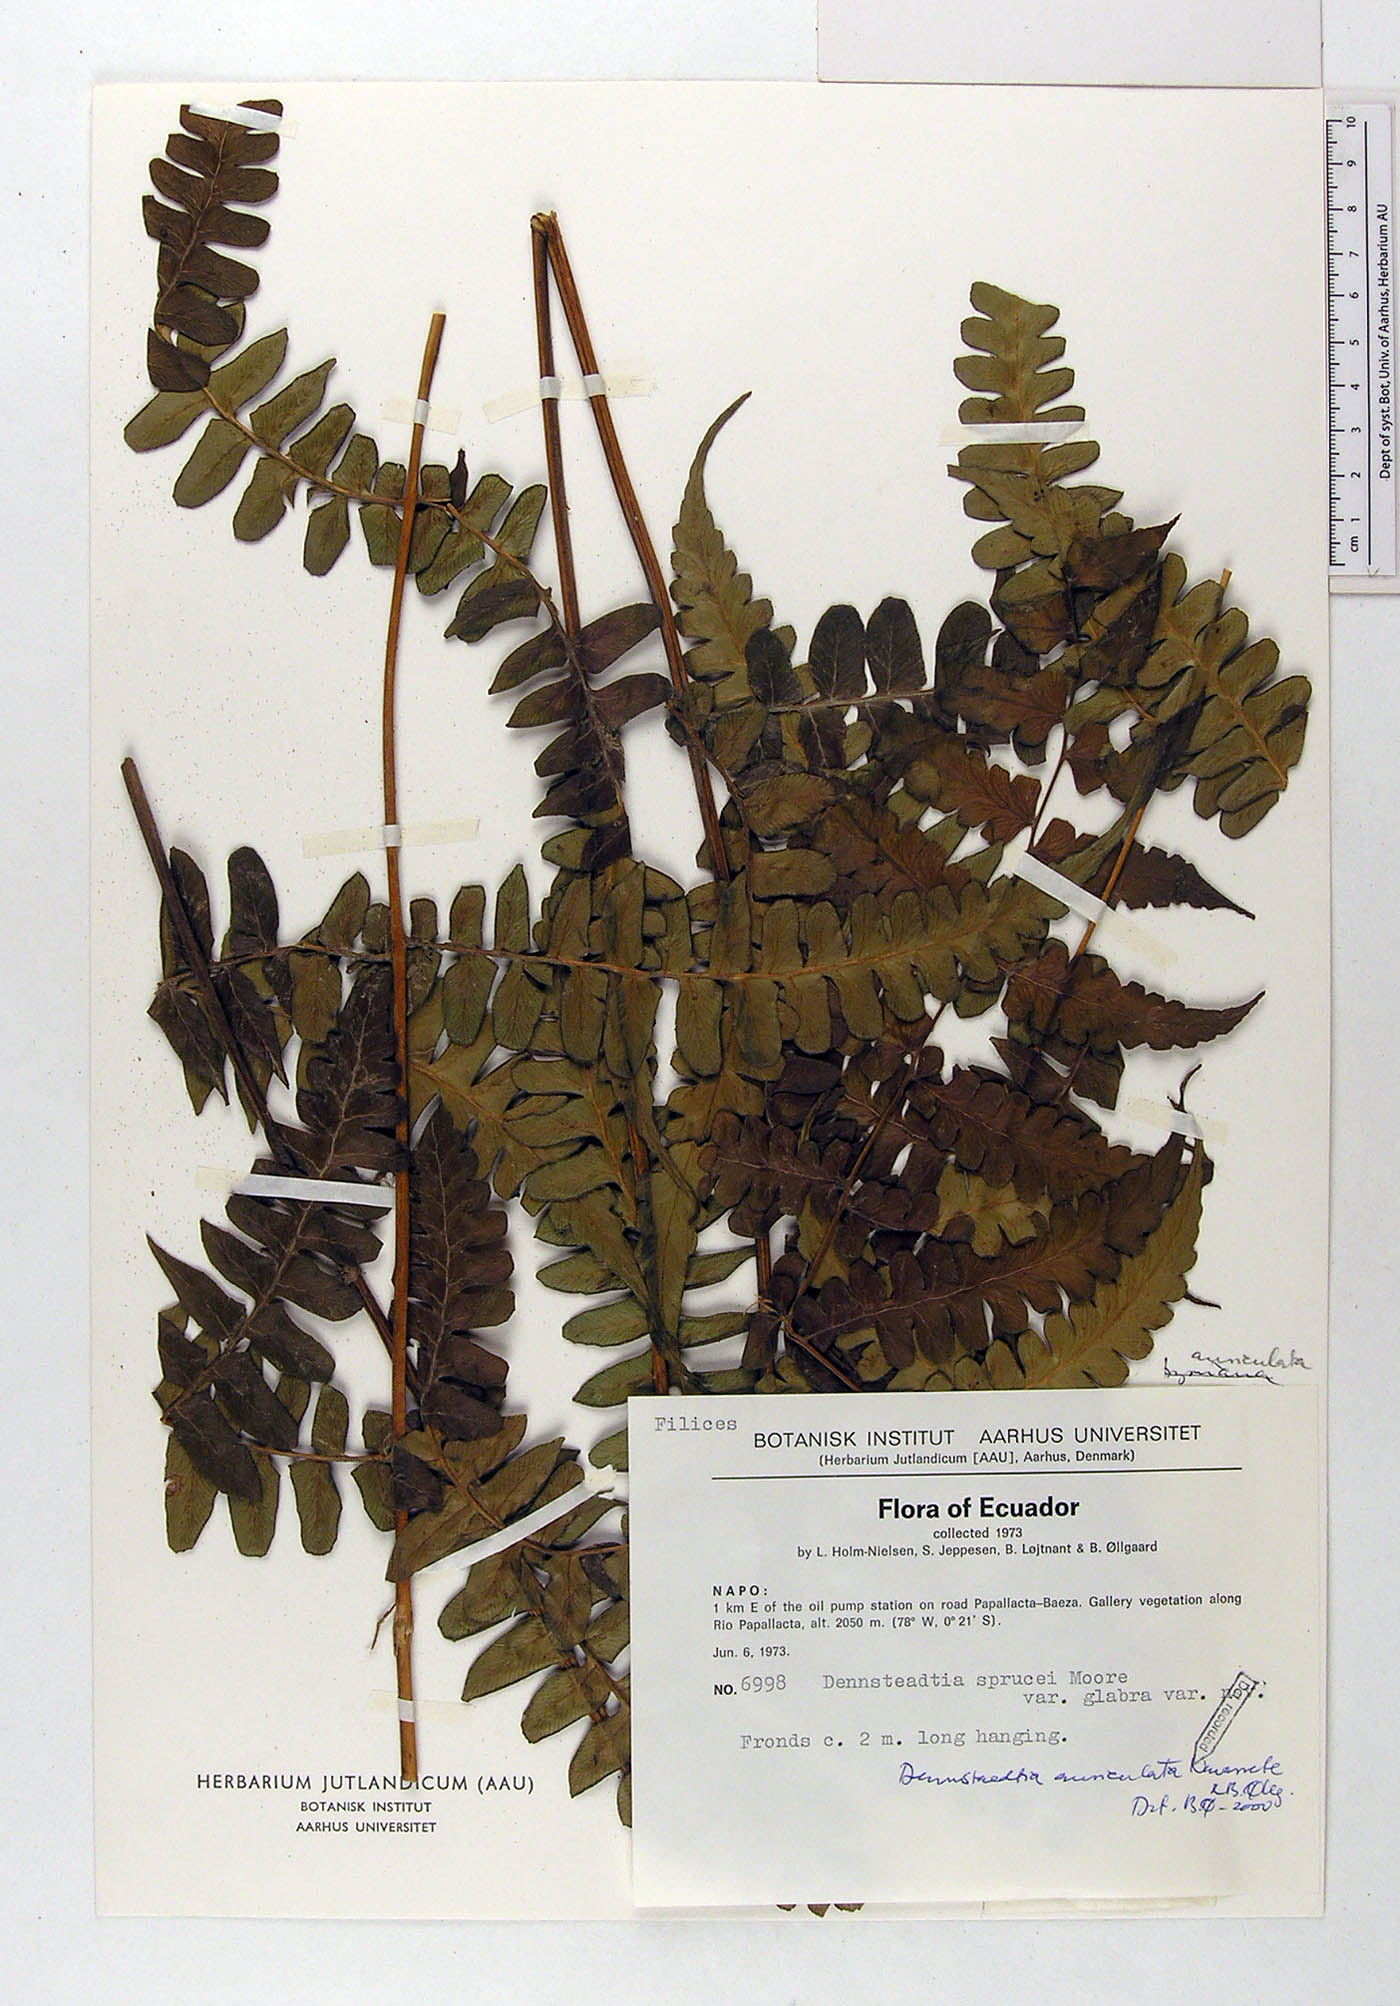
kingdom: Plantae
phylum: Tracheophyta
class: Polypodiopsida
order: Polypodiales
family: Dennstaedtiaceae
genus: Dennstaedtia
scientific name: Dennstaedtia auriculata
